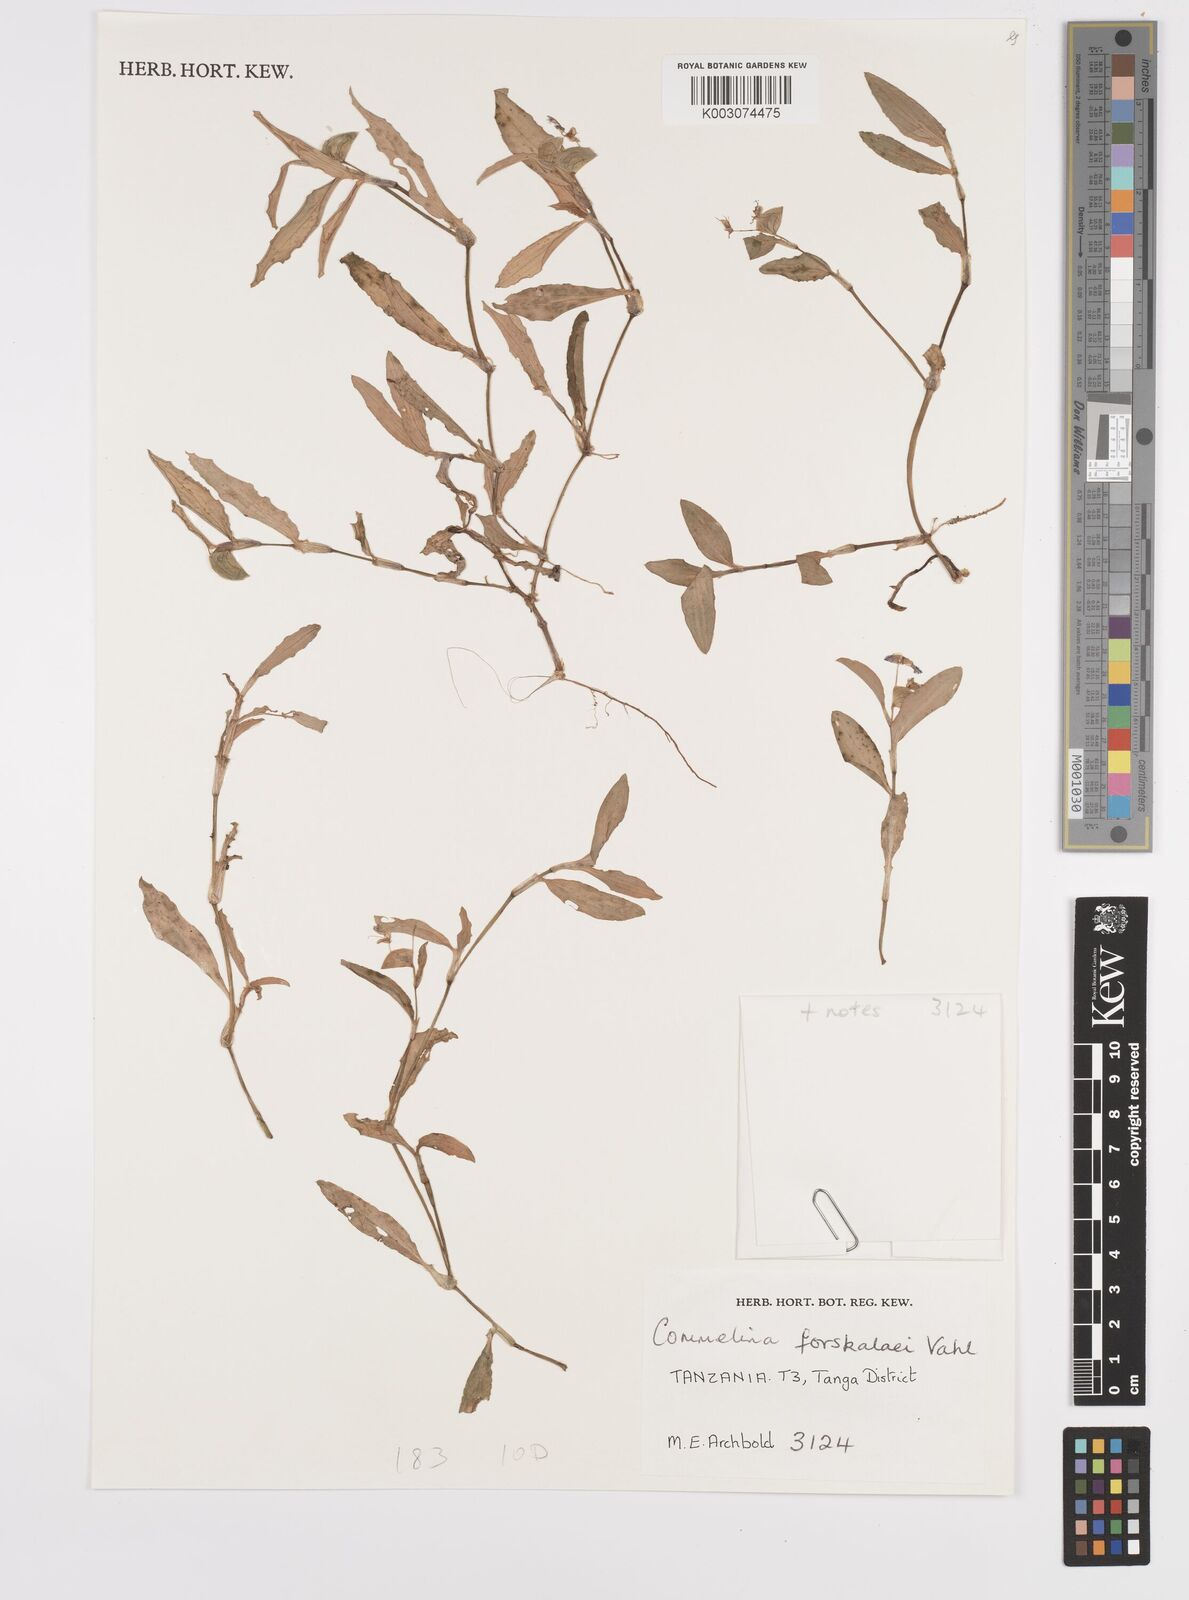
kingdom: Plantae
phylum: Tracheophyta
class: Liliopsida
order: Commelinales
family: Commelinaceae
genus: Commelina
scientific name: Commelina forskaolii
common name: Rat's ear
